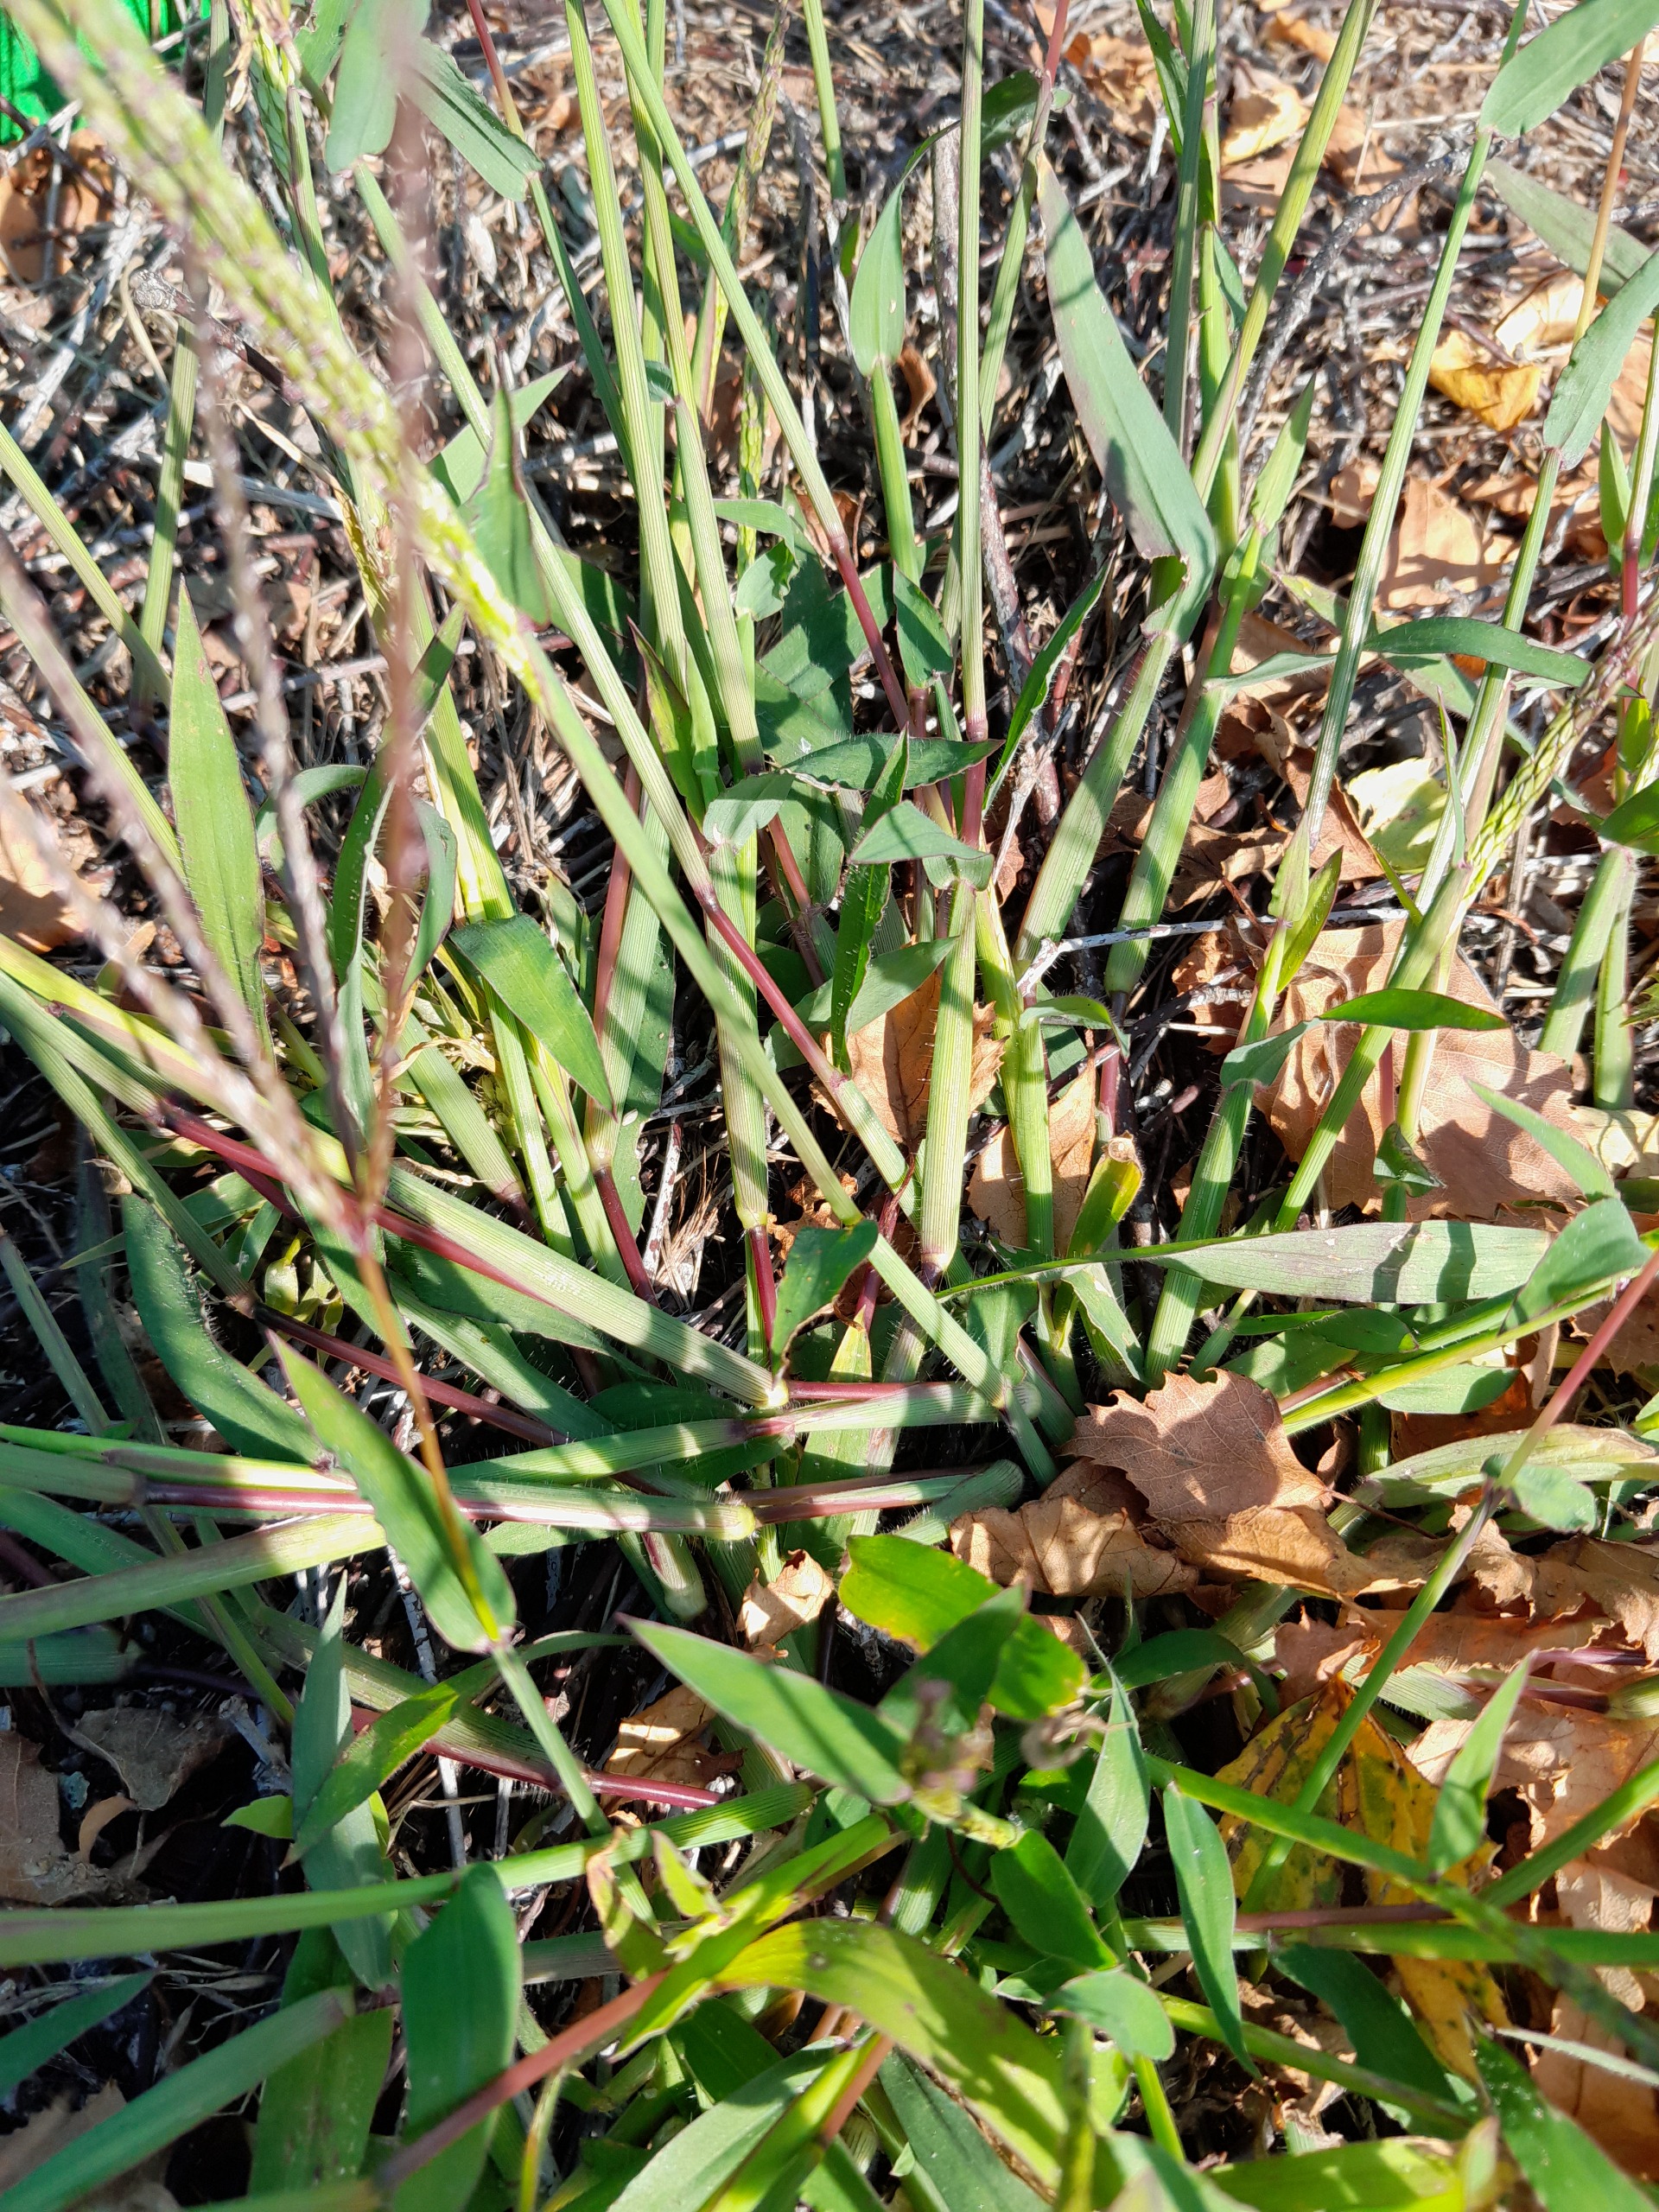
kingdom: Plantae
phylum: Tracheophyta
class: Liliopsida
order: Poales
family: Poaceae
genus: Digitaria
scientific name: Digitaria sanguinalis
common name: Blodhirse
